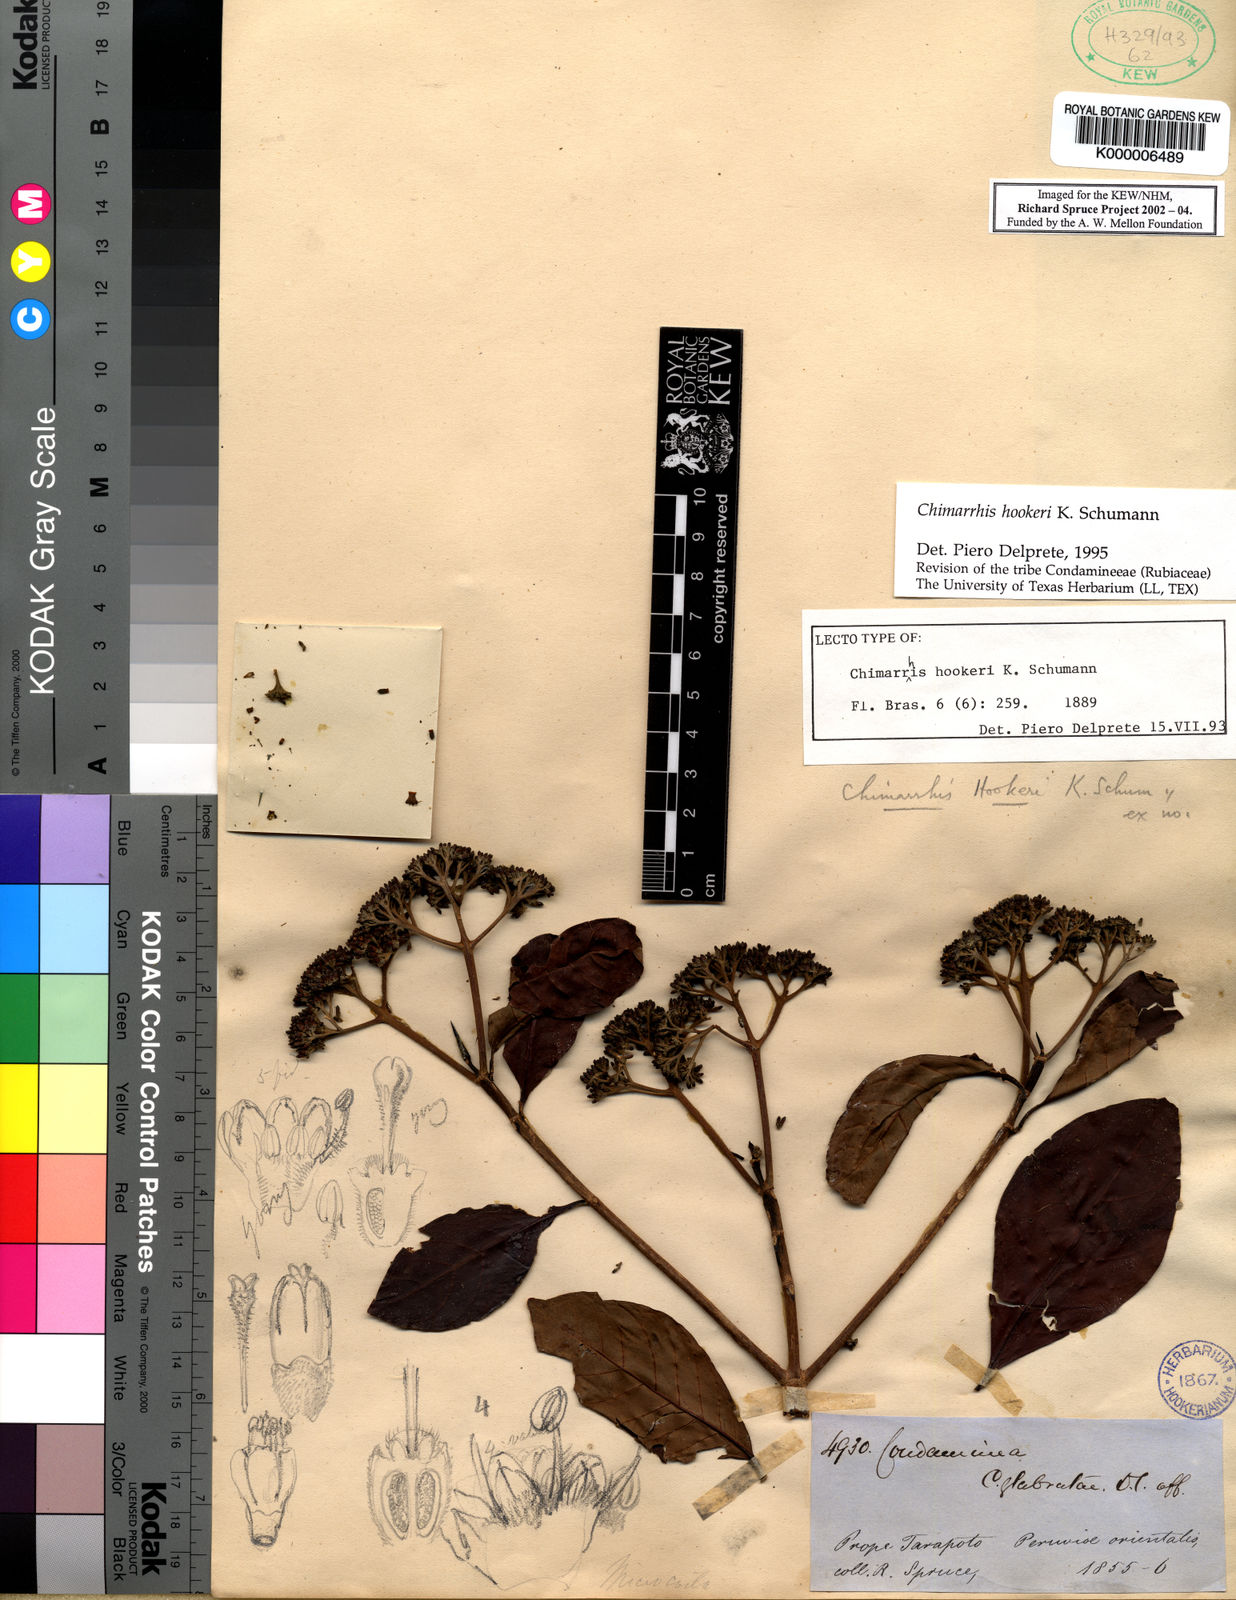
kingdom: Plantae
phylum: Tracheophyta
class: Magnoliopsida
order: Gentianales
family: Rubiaceae
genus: Chimarrhis
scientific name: Chimarrhis hookeri
